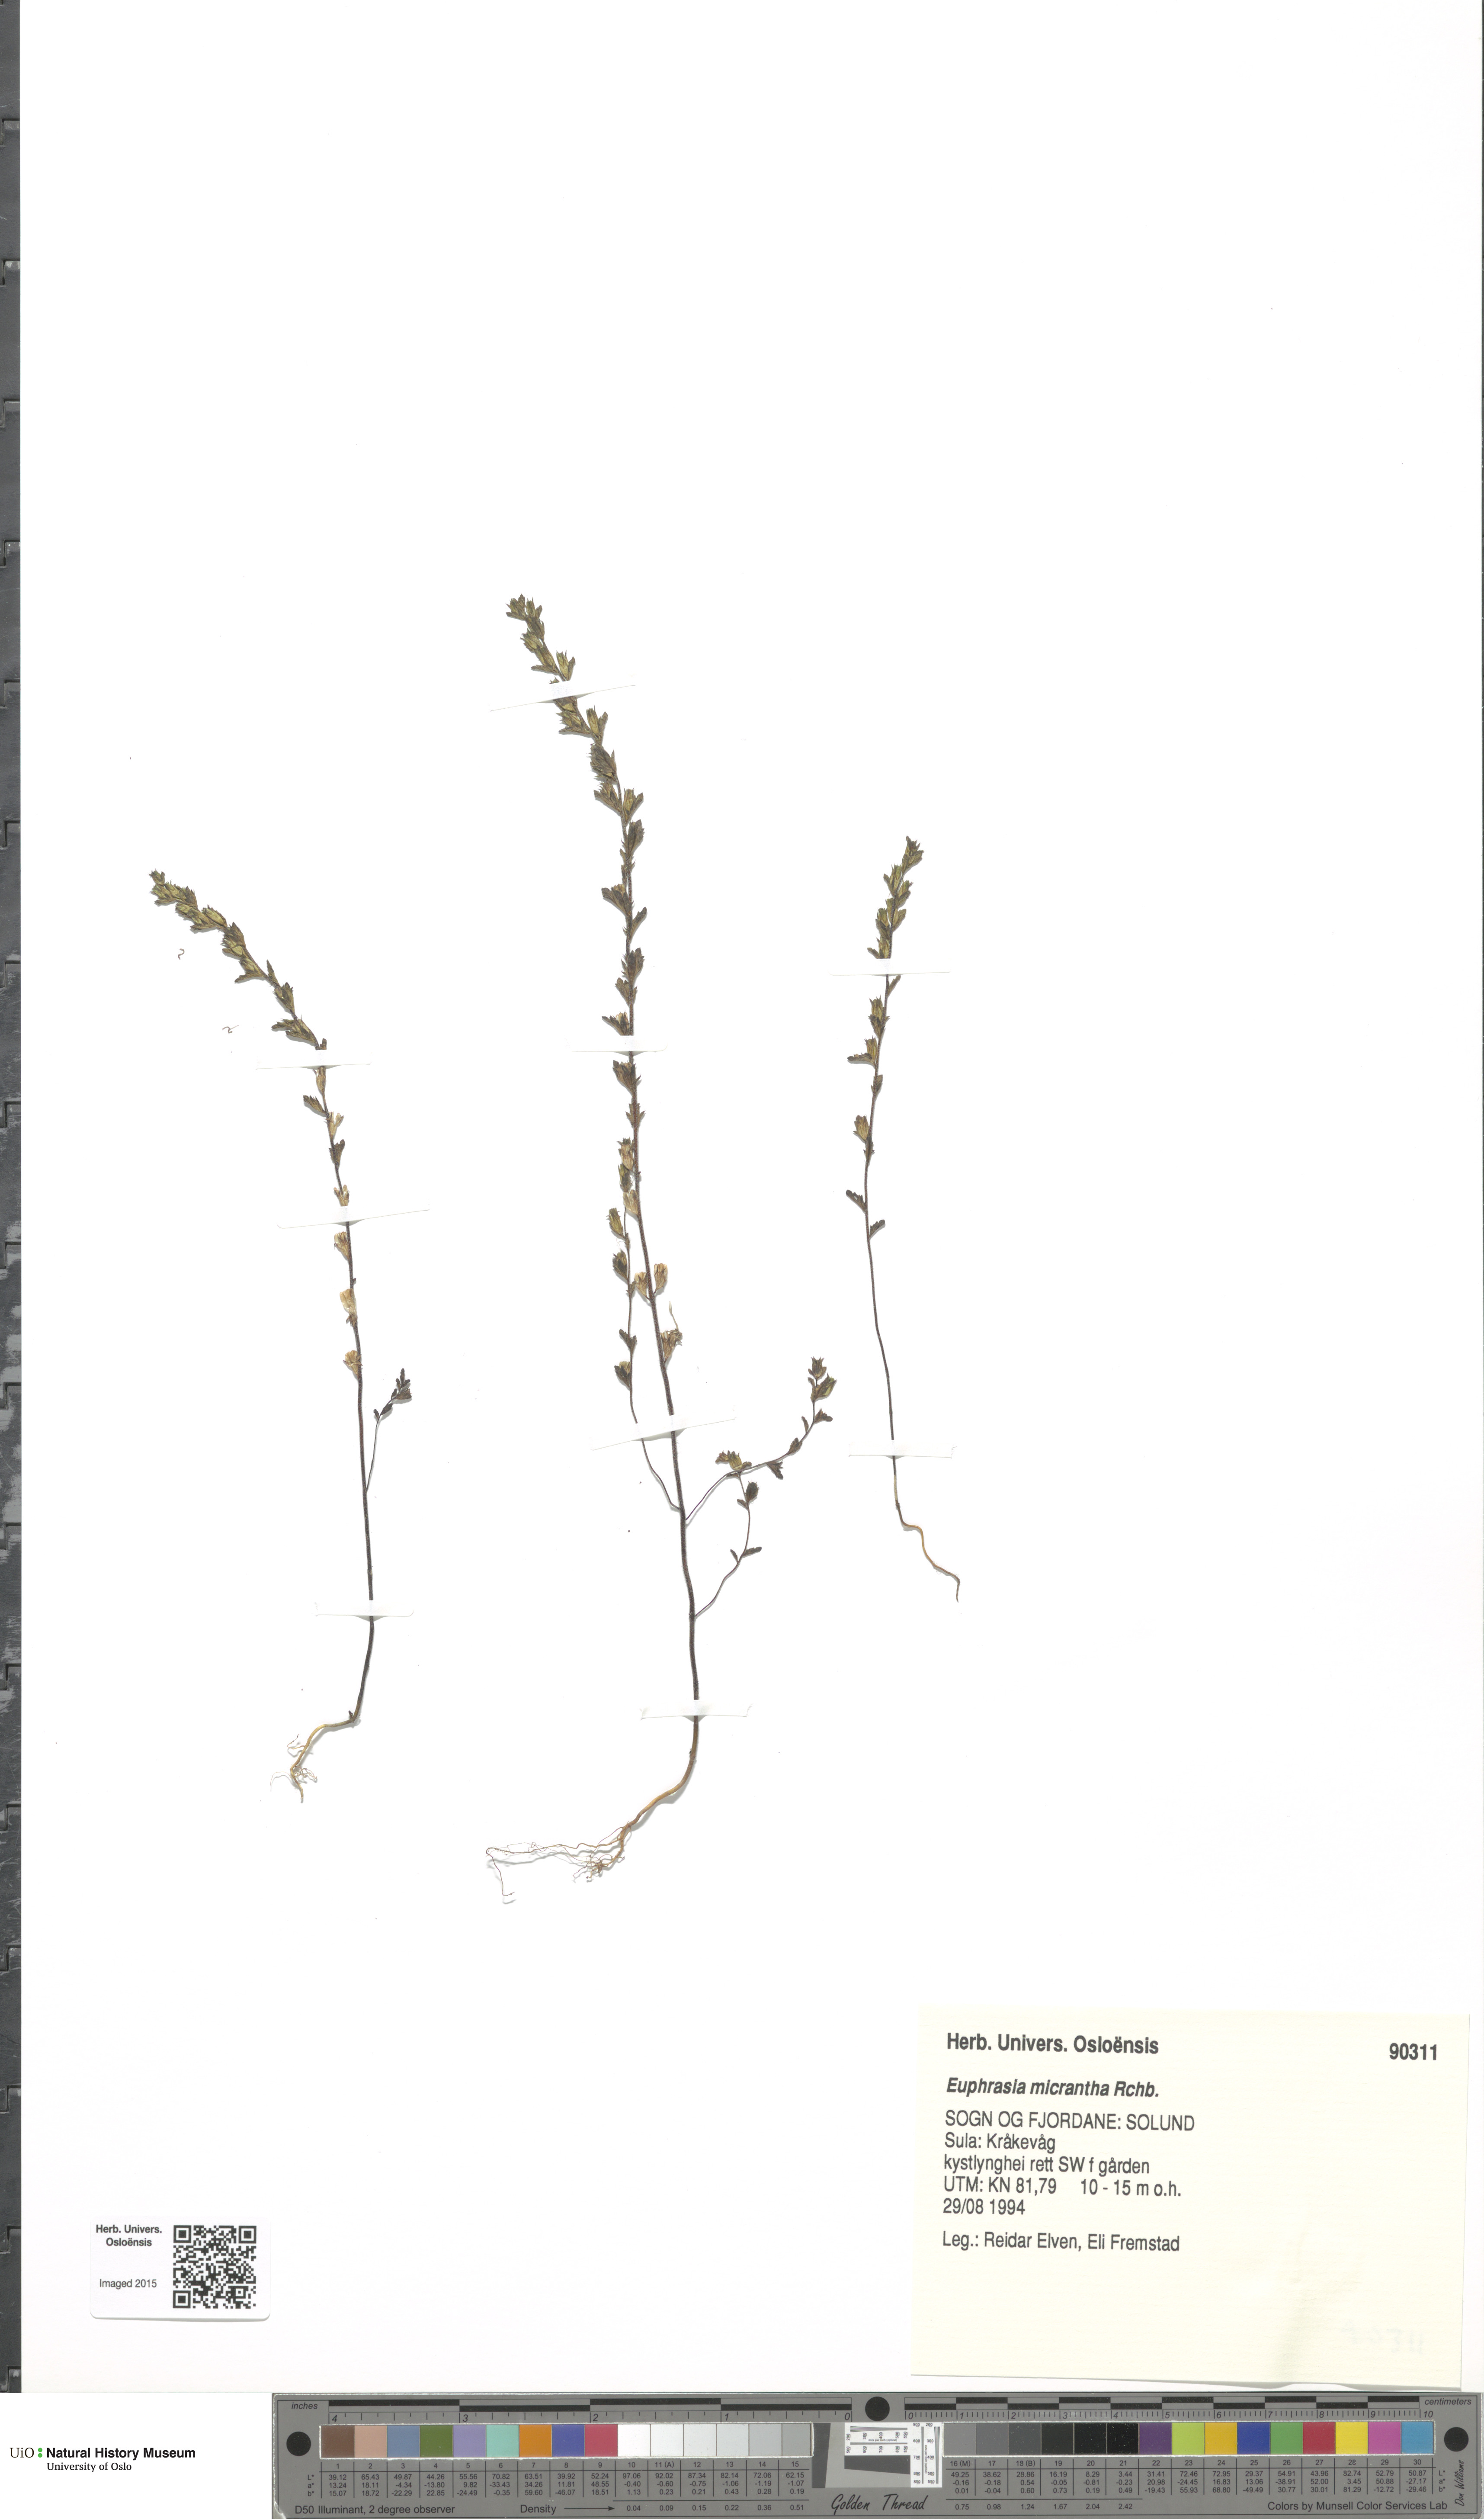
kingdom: Plantae
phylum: Tracheophyta
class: Magnoliopsida
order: Lamiales
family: Orobanchaceae
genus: Euphrasia
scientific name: Euphrasia micrantha
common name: Northern eyebright
